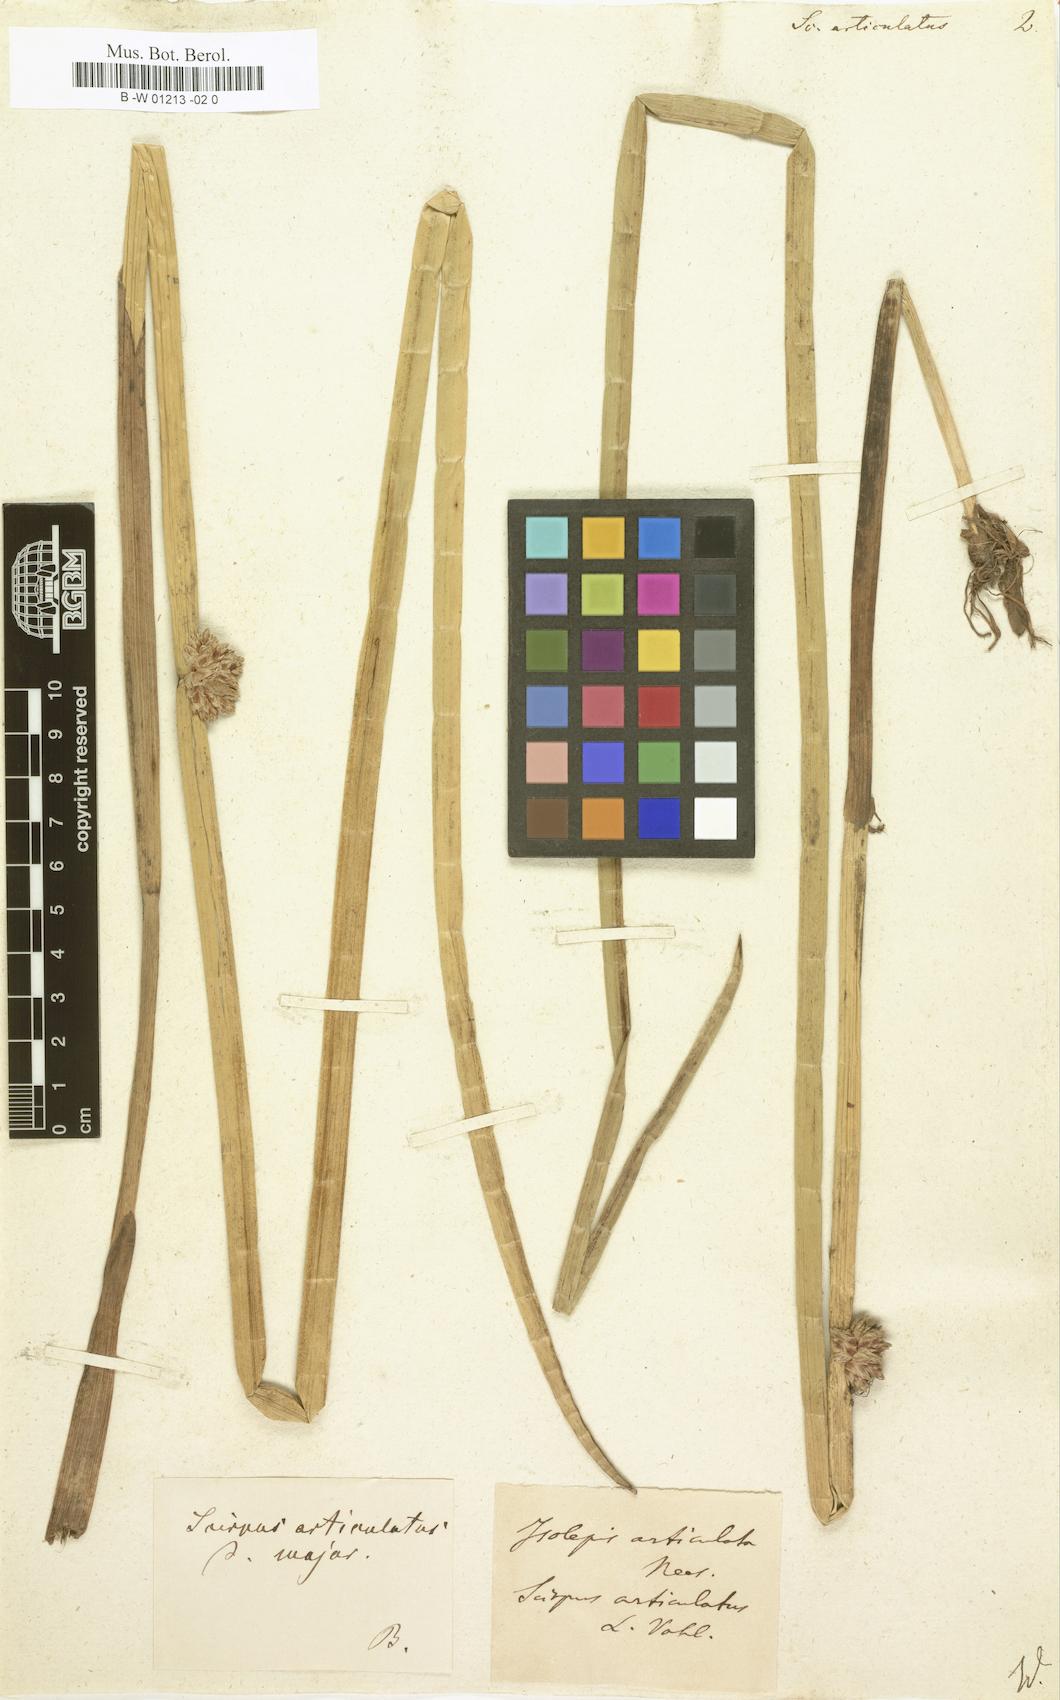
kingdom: Plantae
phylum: Tracheophyta
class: Liliopsida
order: Poales
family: Cyperaceae
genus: Schoenoplectiella
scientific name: Schoenoplectiella articulata
